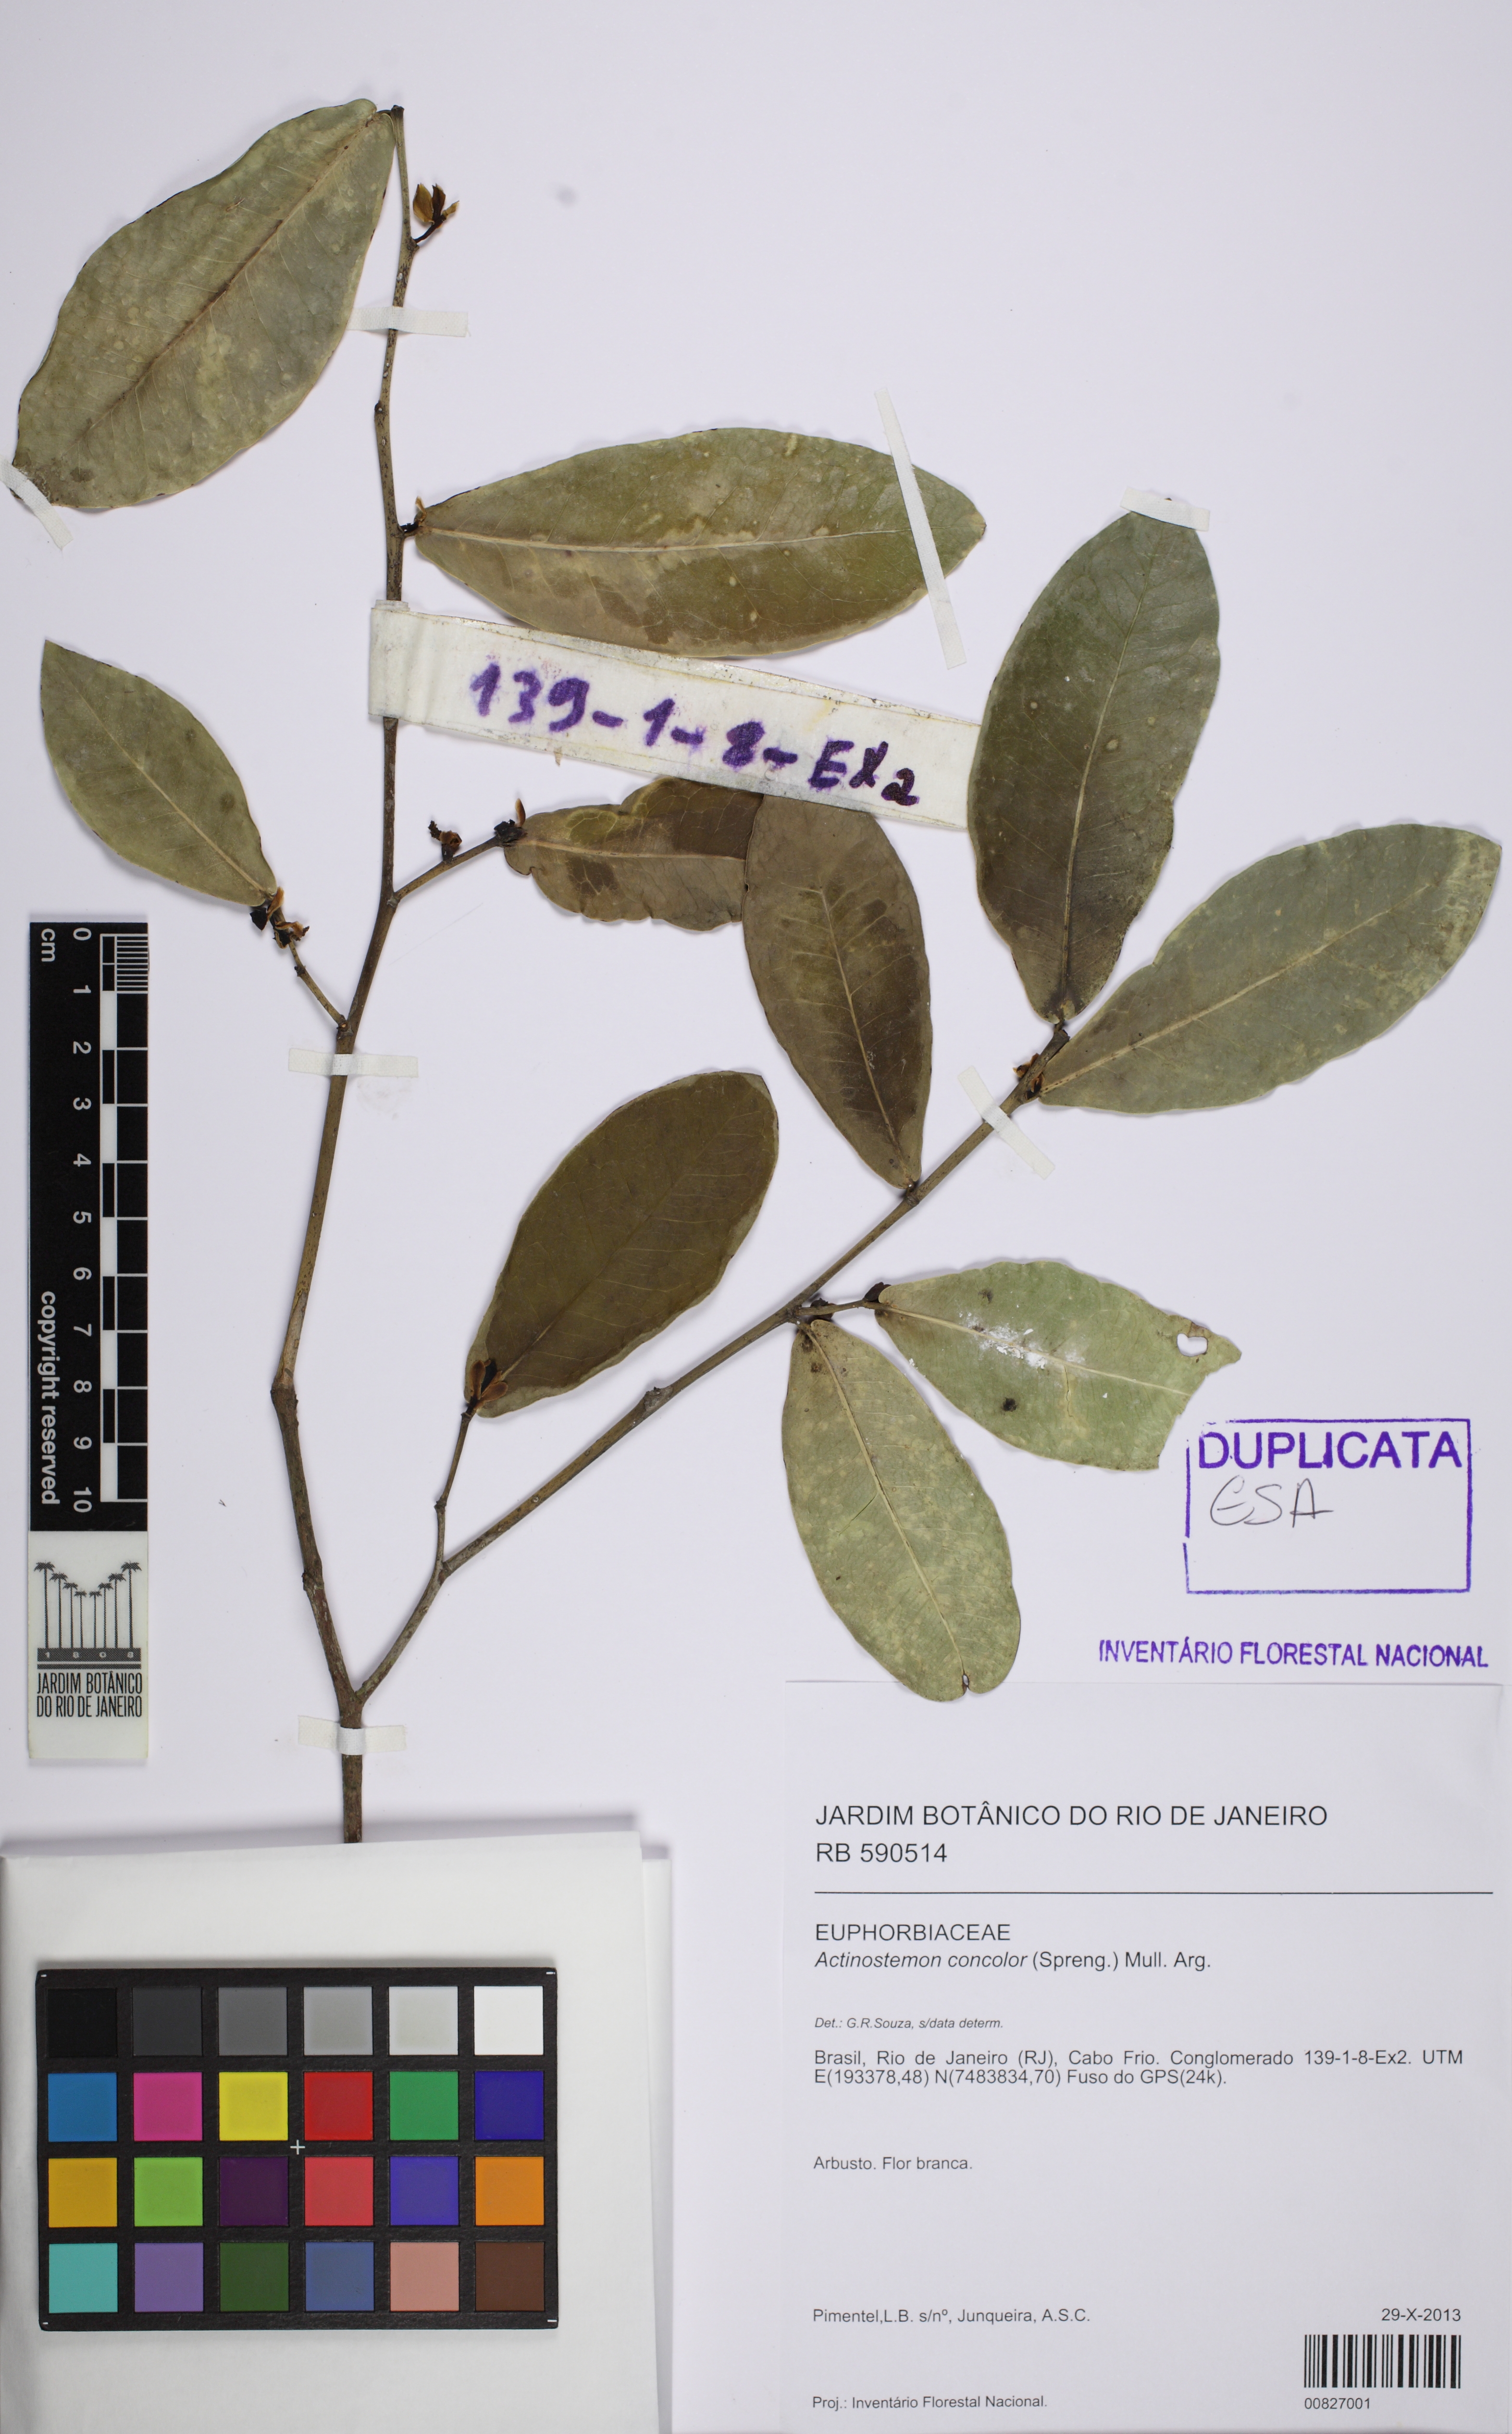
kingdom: Plantae
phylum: Tracheophyta
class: Magnoliopsida
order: Malpighiales
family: Euphorbiaceae
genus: Actinostemon
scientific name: Actinostemon concolor
